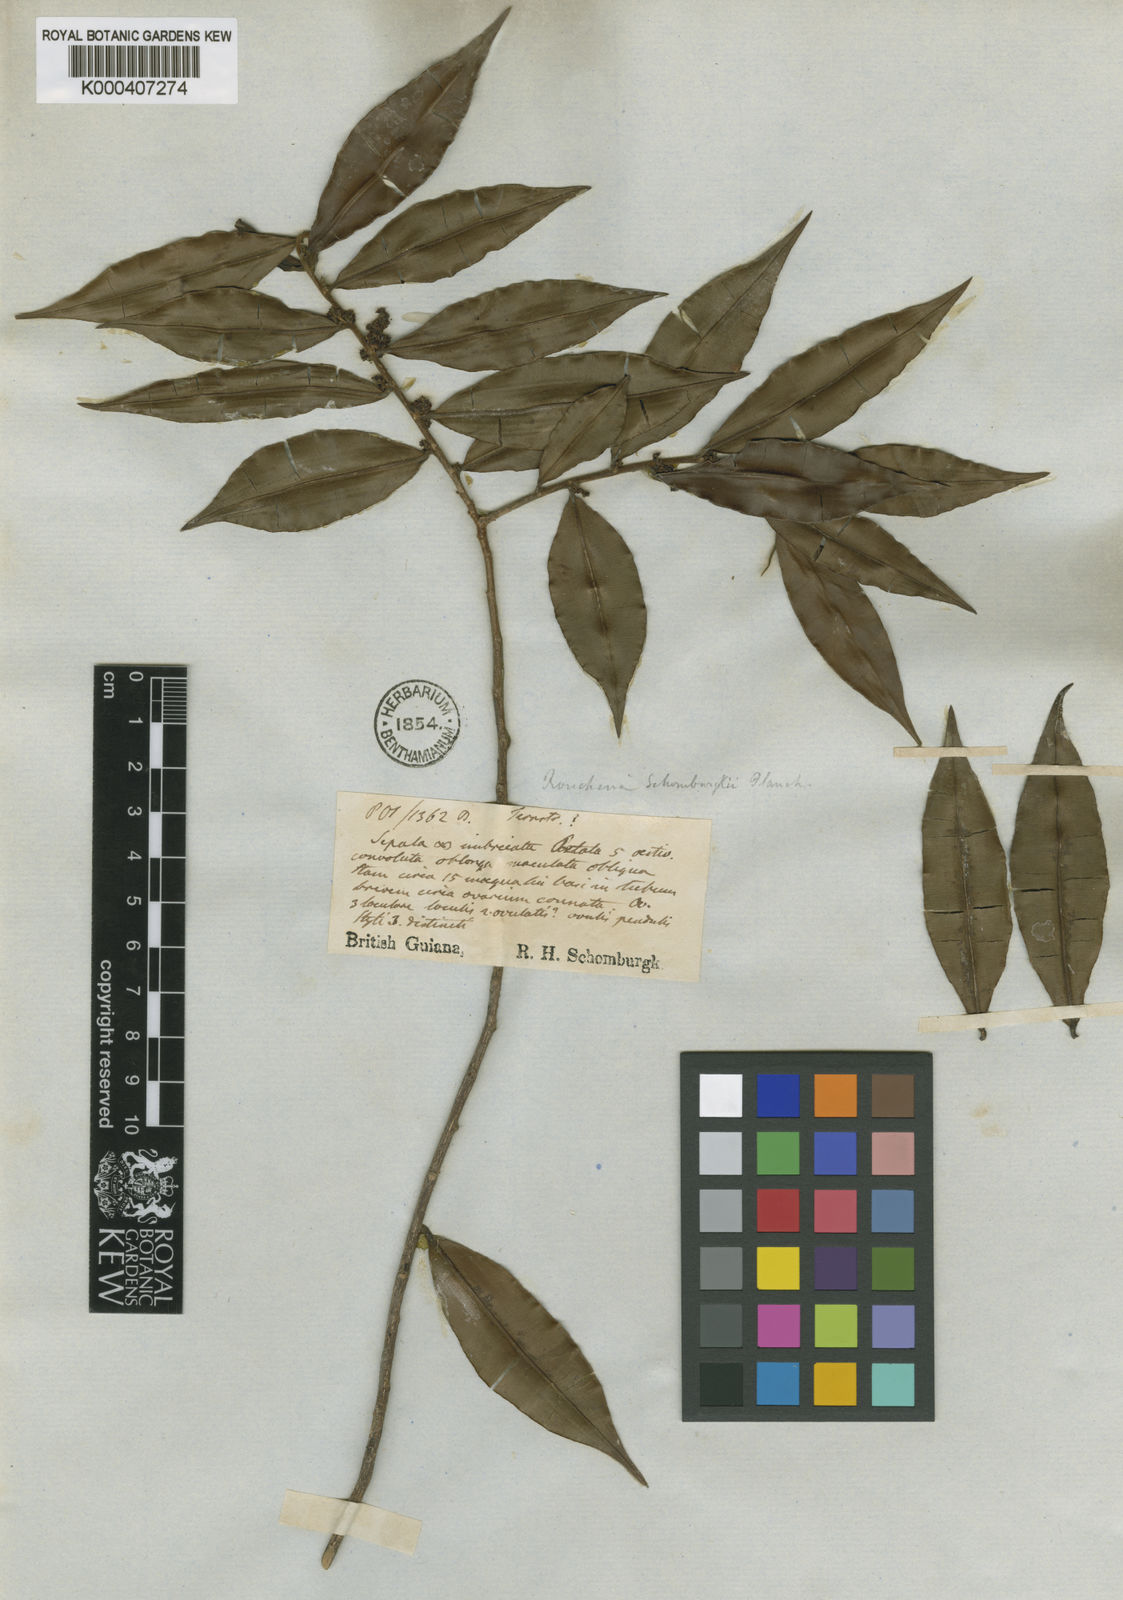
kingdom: Plantae
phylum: Tracheophyta
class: Magnoliopsida
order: Malpighiales
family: Linaceae
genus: Roucheria
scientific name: Roucheria schomburgkii
